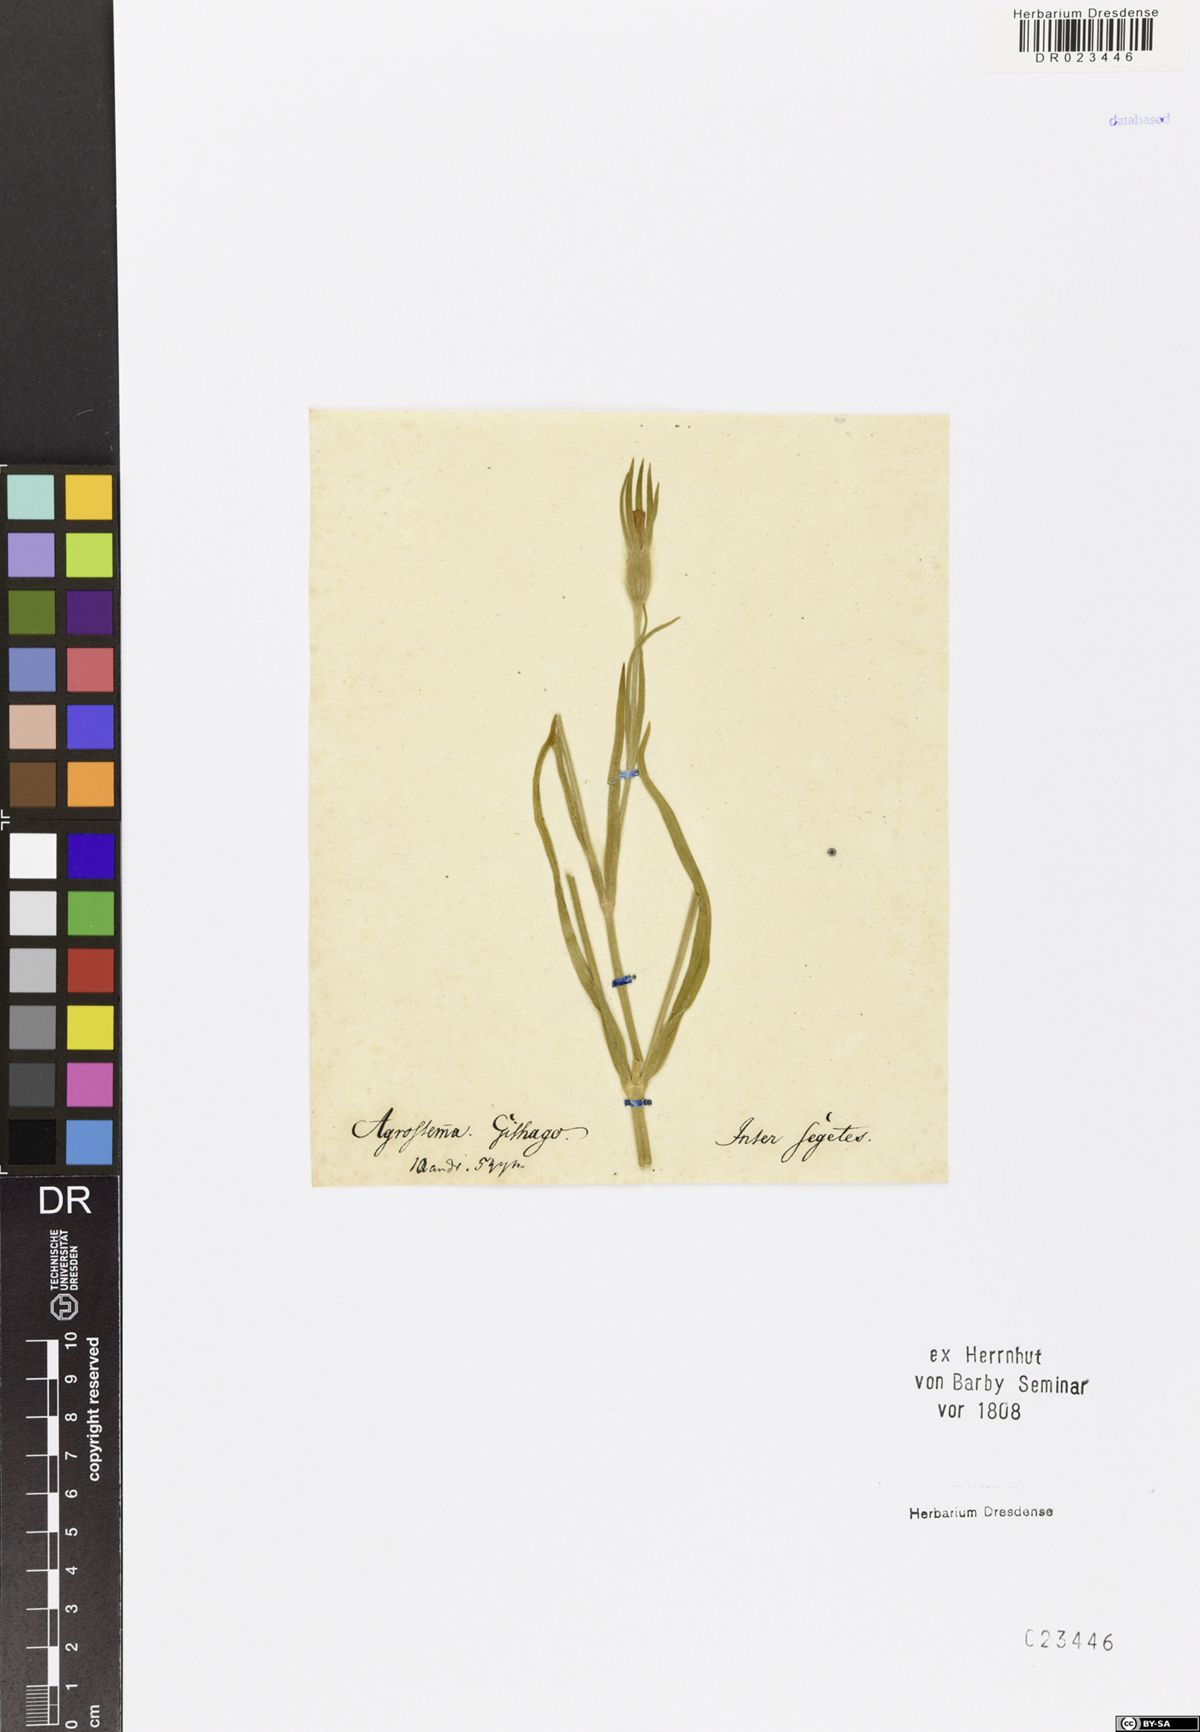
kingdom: Plantae
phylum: Tracheophyta
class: Magnoliopsida
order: Caryophyllales
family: Caryophyllaceae
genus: Agrostemma
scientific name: Agrostemma githago
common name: Common corncockle
